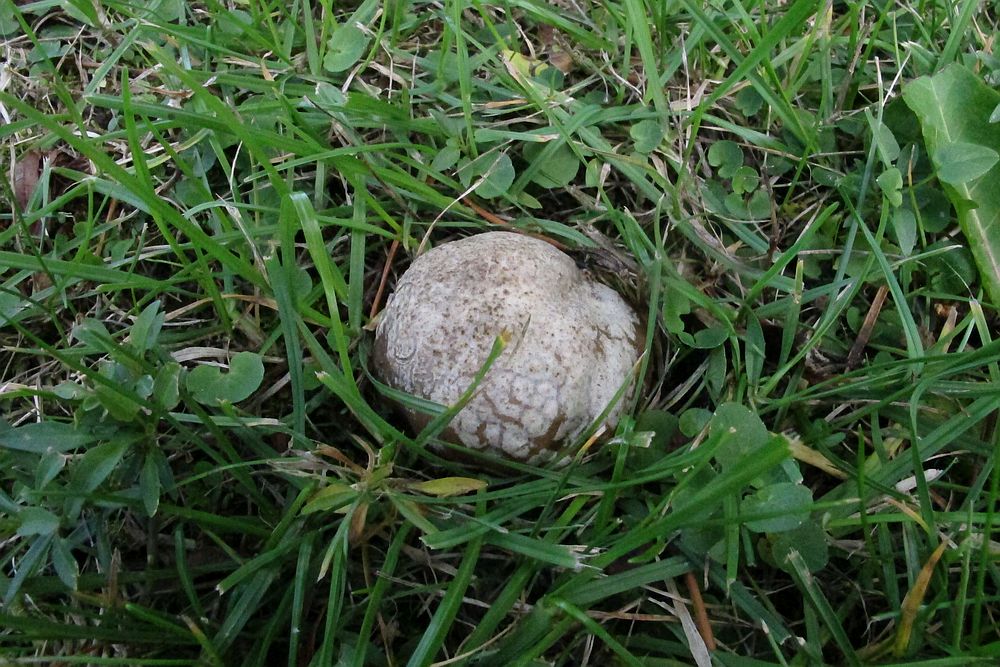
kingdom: Fungi
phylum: Basidiomycota
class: Agaricomycetes
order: Agaricales
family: Lycoperdaceae
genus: Bovista
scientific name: Bovista plumbea
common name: blygrå bovist
